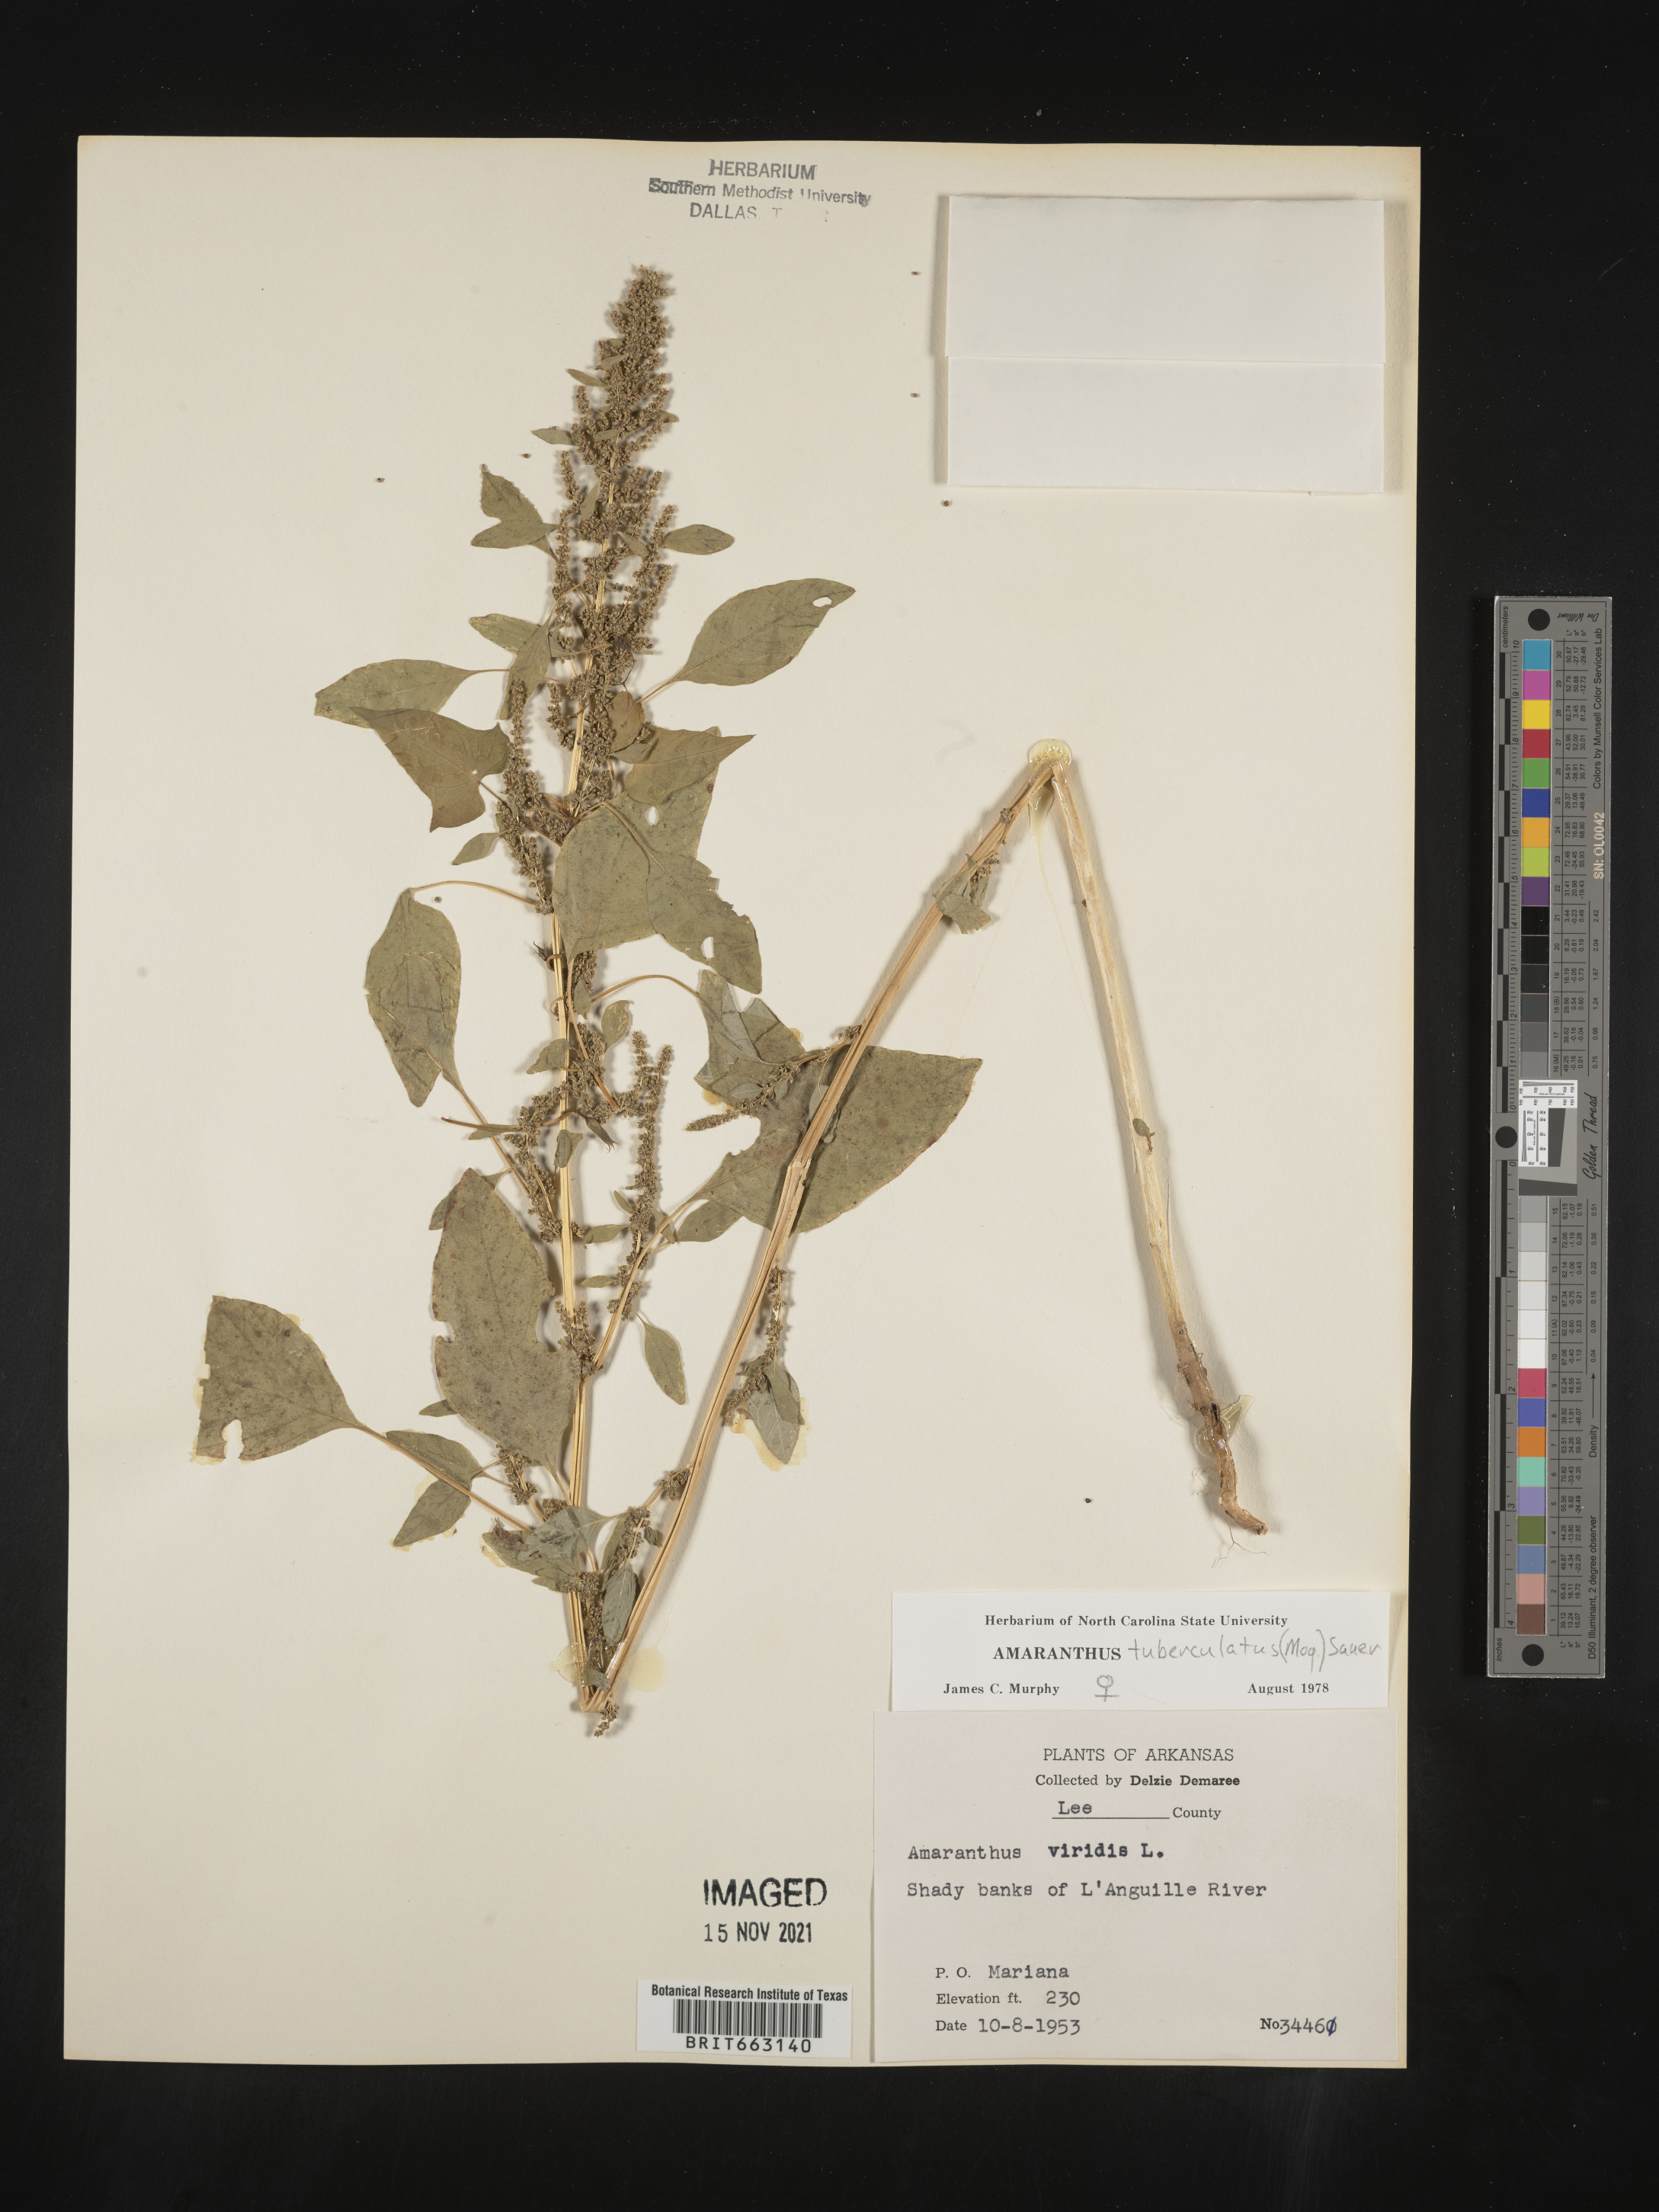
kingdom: Plantae
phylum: Tracheophyta
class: Magnoliopsida
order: Caryophyllales
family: Amaranthaceae
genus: Amaranthus
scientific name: Amaranthus tuberculatus
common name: Rough-fruit amaranth
